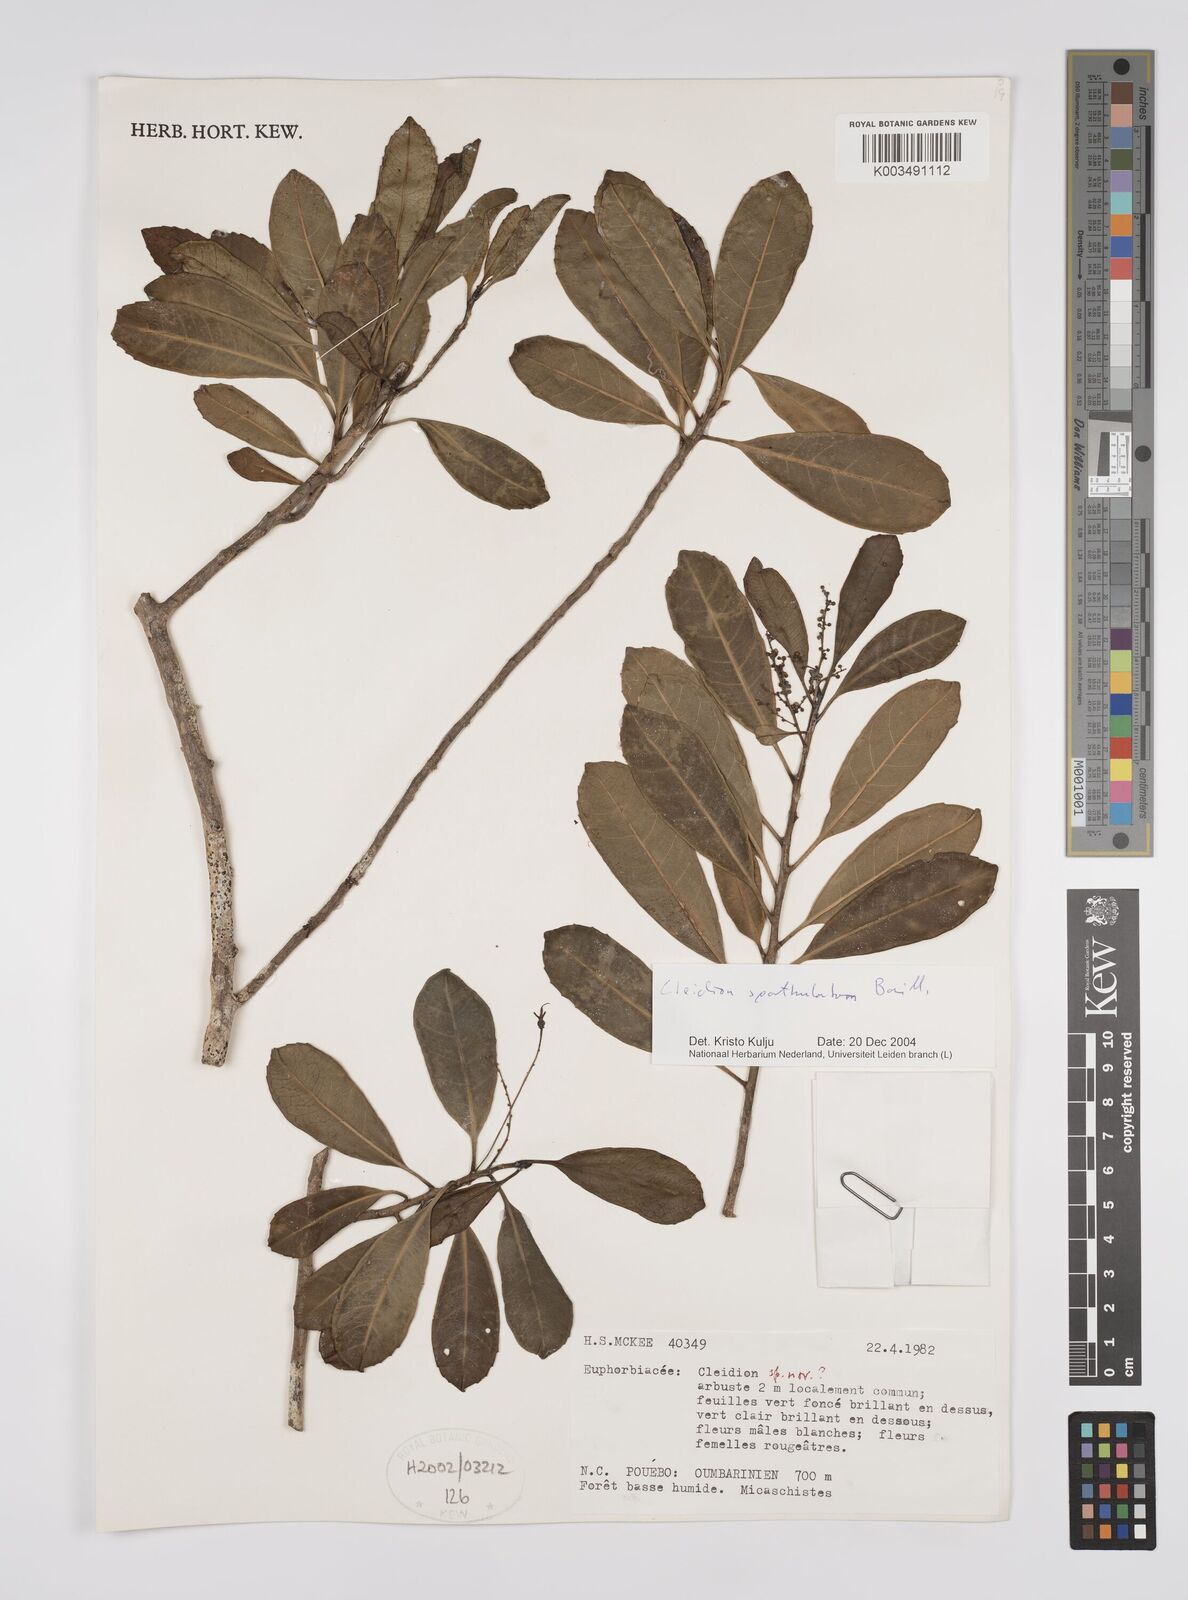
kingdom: Plantae
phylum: Tracheophyta
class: Magnoliopsida
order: Malpighiales
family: Euphorbiaceae
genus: Cleidion
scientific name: Cleidion spathulatum
